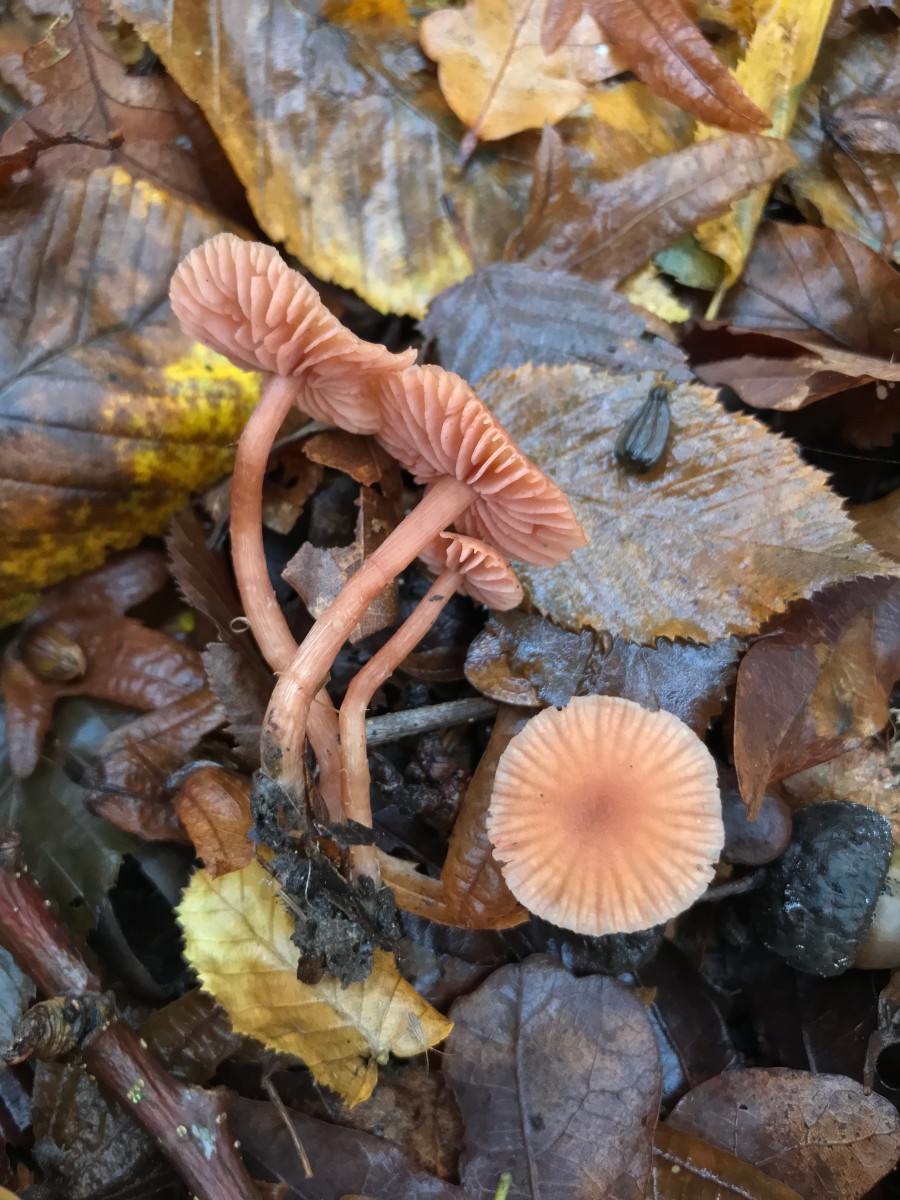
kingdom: Fungi
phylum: Basidiomycota
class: Agaricomycetes
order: Agaricales
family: Hydnangiaceae
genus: Laccaria
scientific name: Laccaria laccata
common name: rød ametysthat
